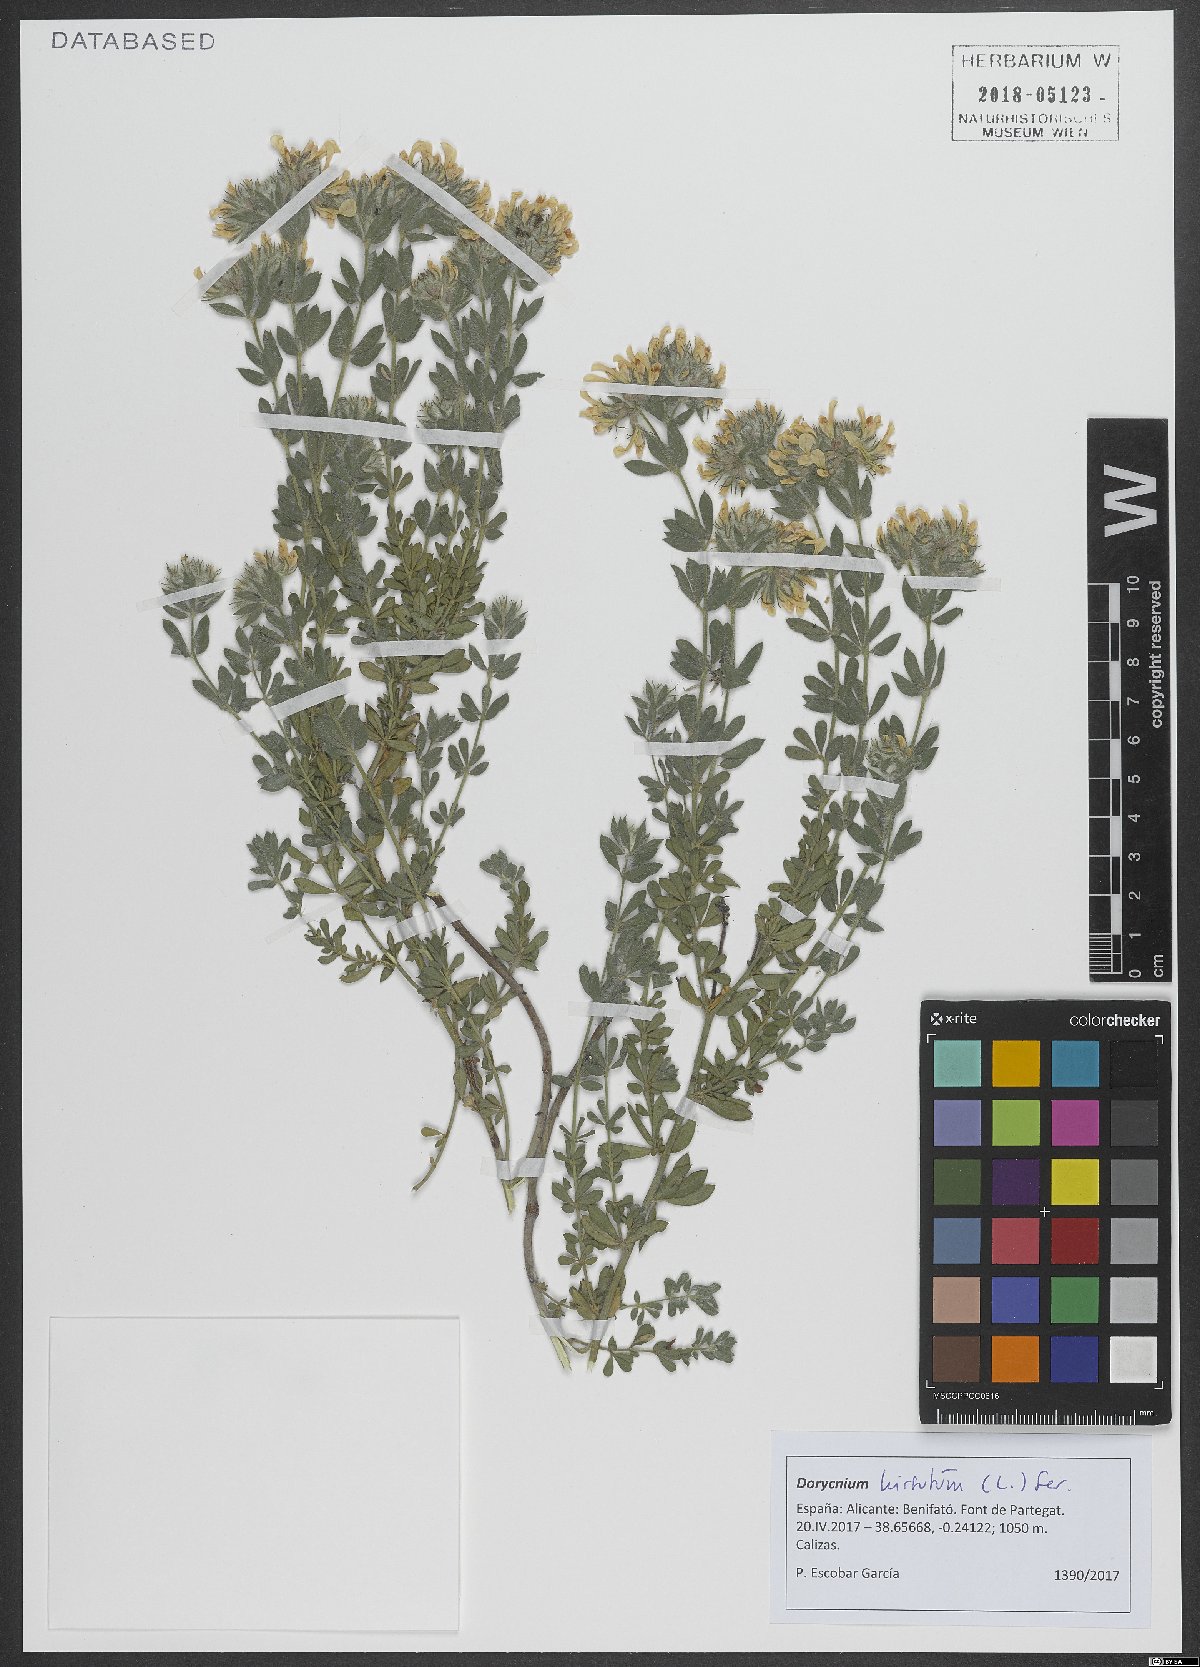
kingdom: Plantae
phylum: Tracheophyta
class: Magnoliopsida
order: Fabales
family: Fabaceae
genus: Lotus
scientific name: Lotus hirsutus
